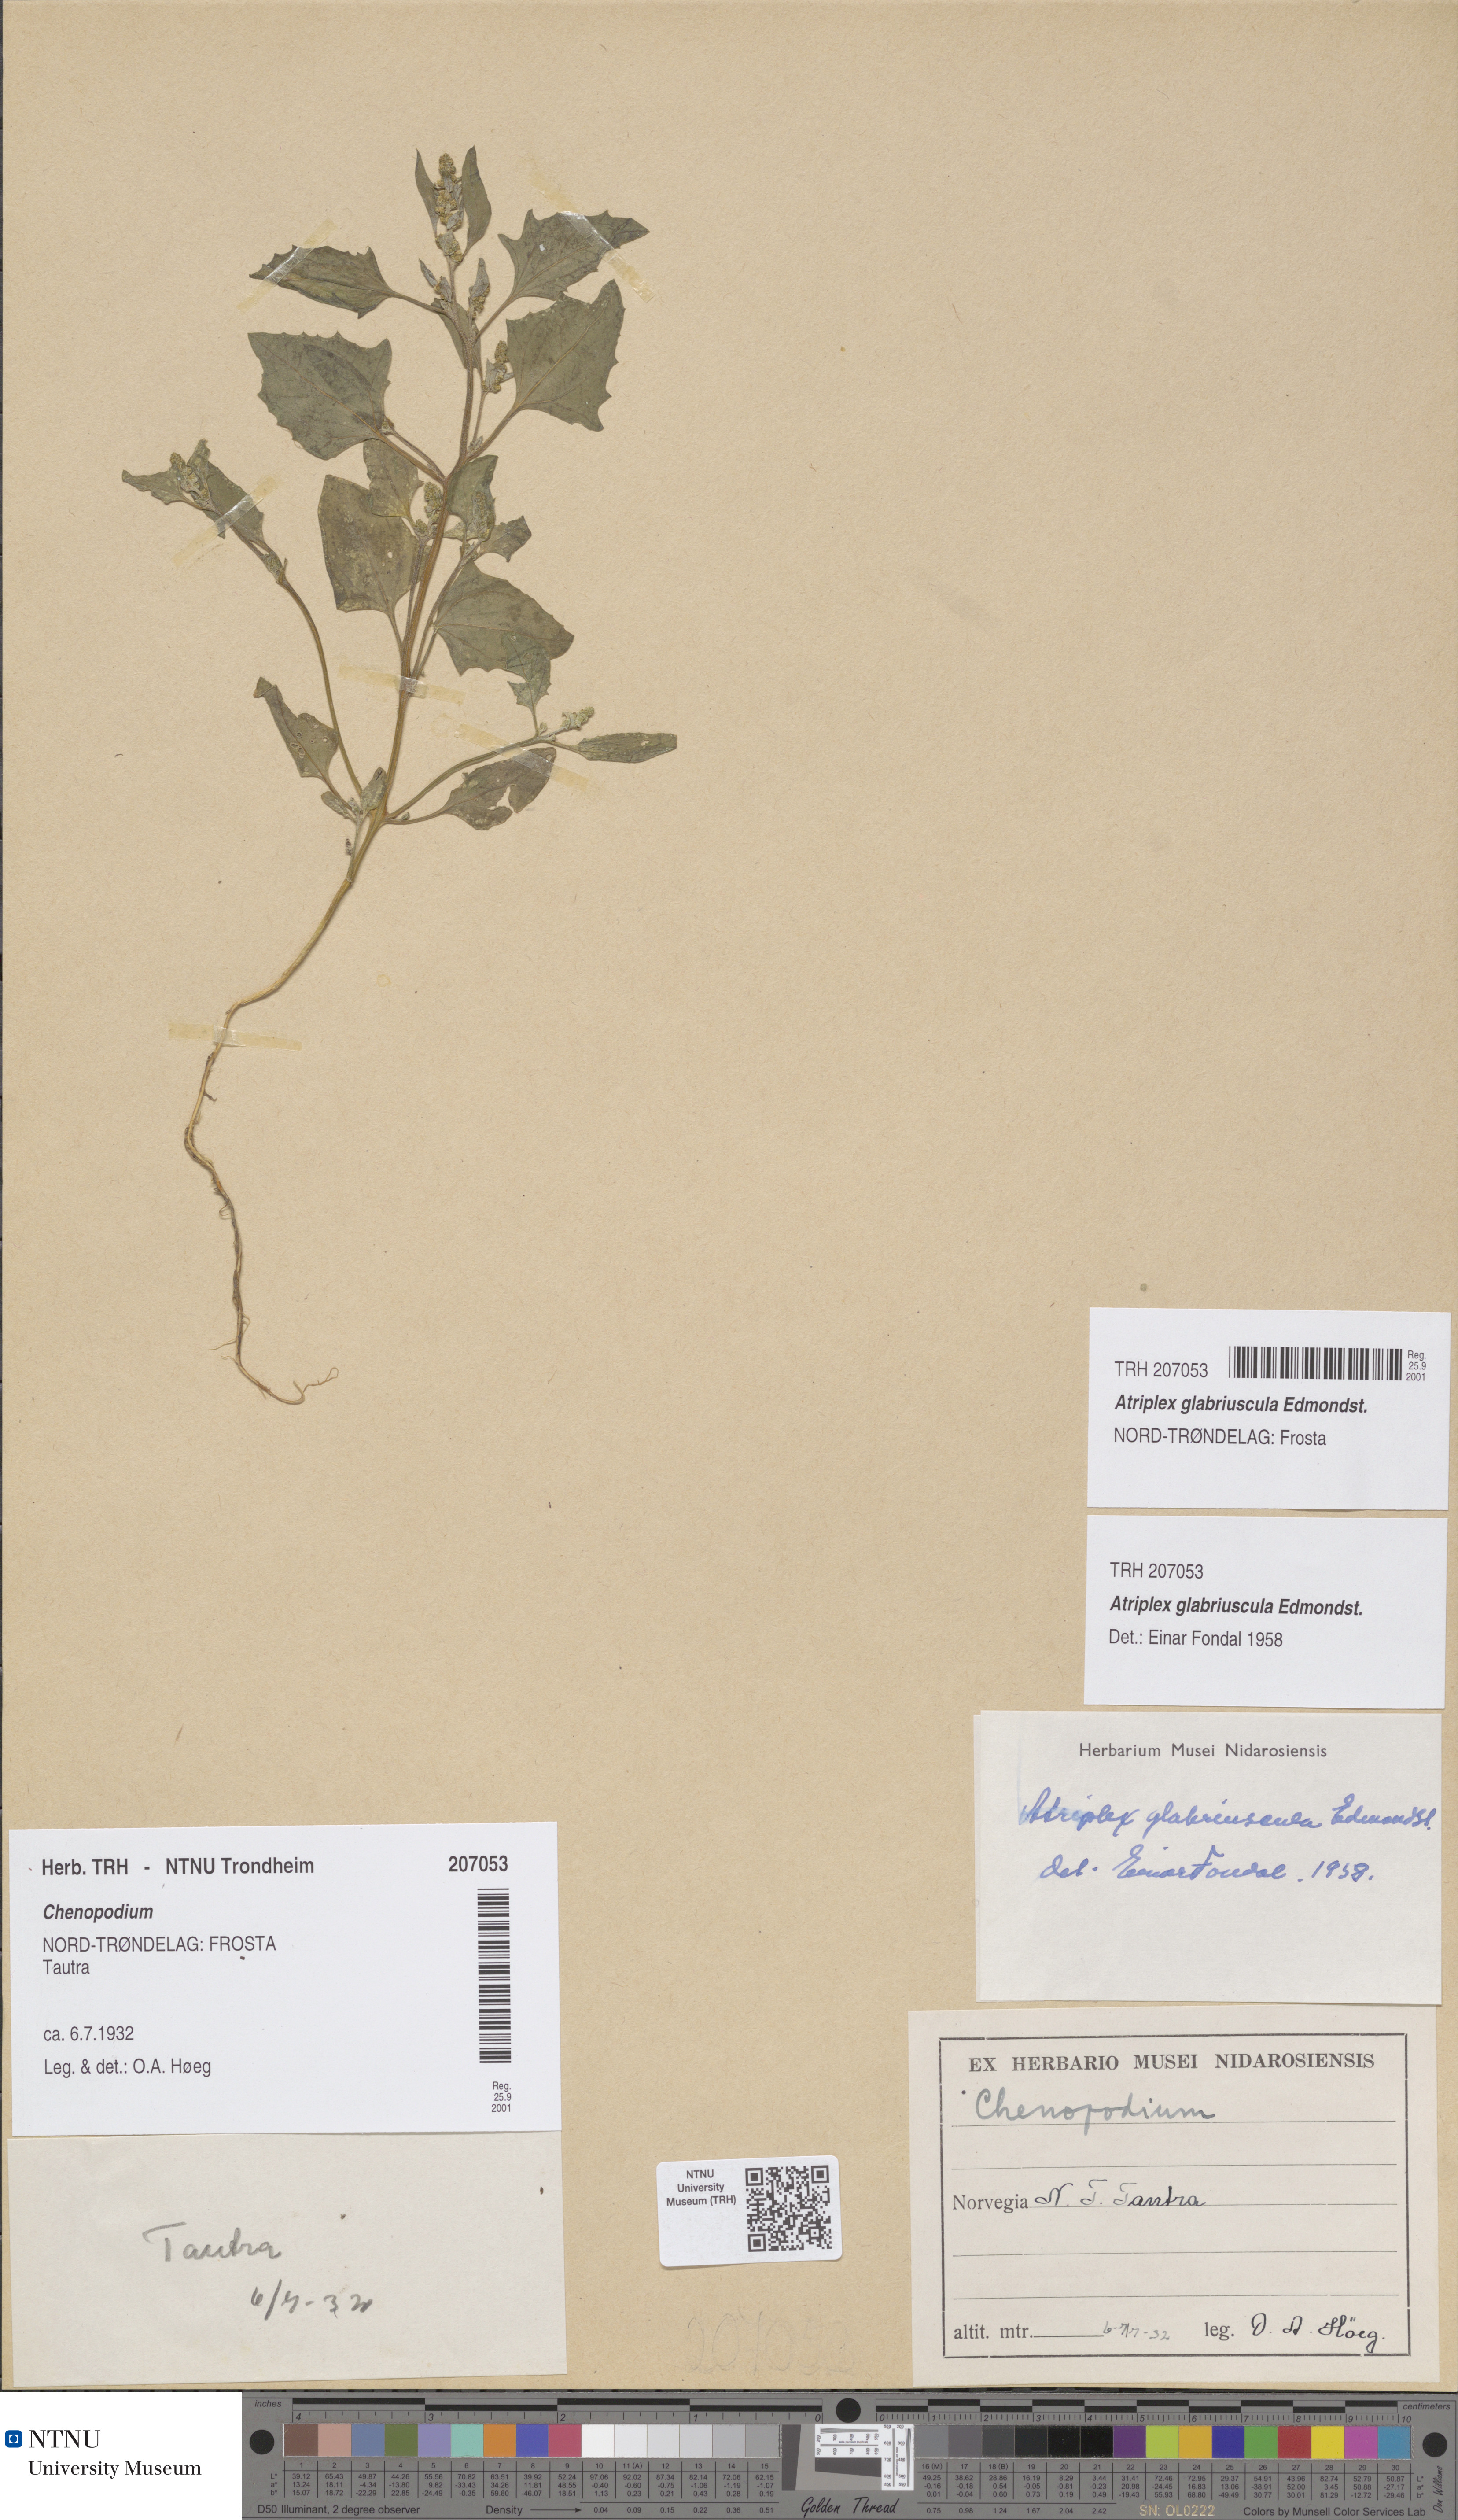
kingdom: Plantae
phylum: Tracheophyta
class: Magnoliopsida
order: Caryophyllales
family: Amaranthaceae
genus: Atriplex
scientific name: Atriplex glabriuscula
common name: Babington's orache
